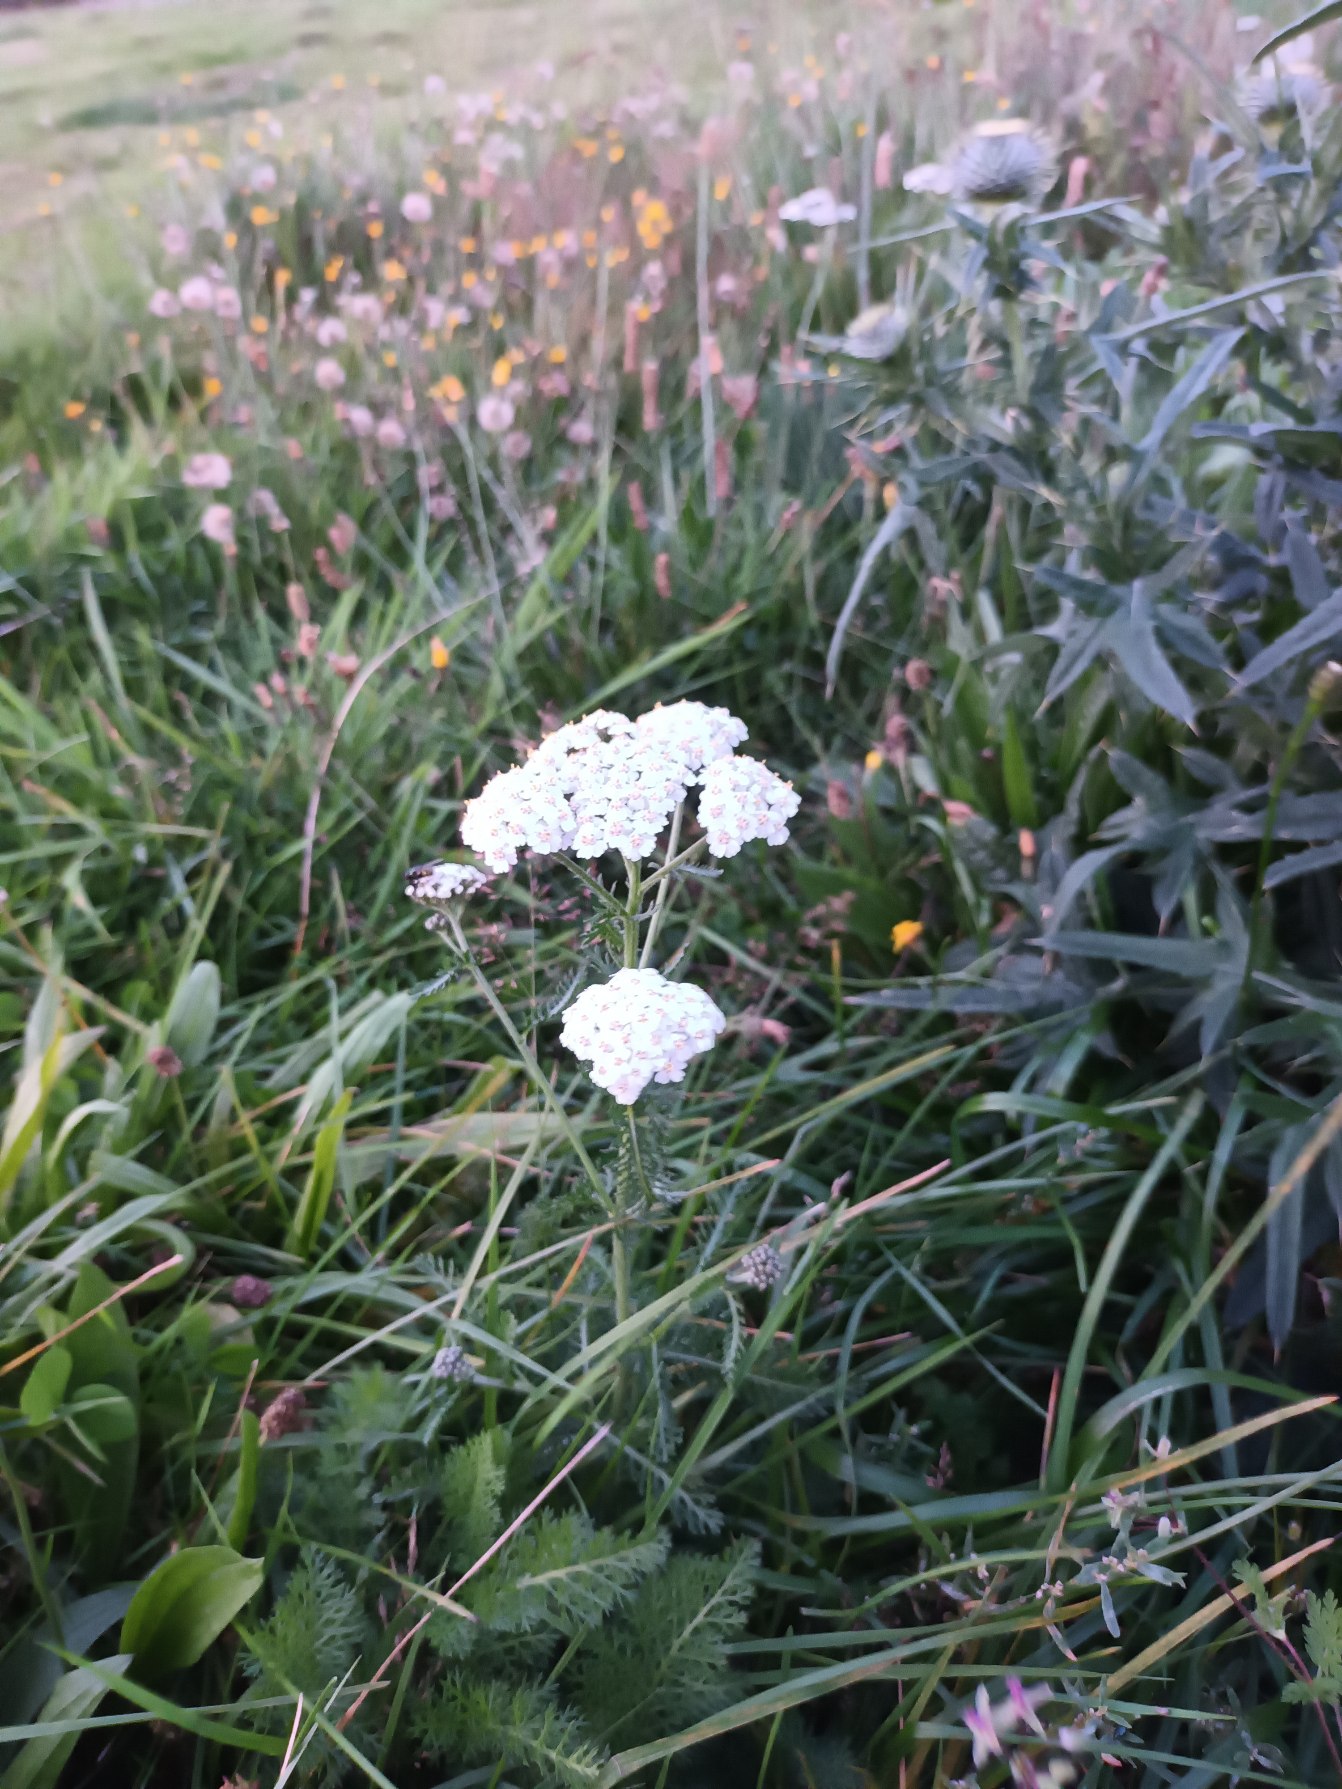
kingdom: Plantae
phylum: Tracheophyta
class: Magnoliopsida
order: Asterales
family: Asteraceae
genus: Achillea
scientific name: Achillea millefolium
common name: Almindelig røllike
